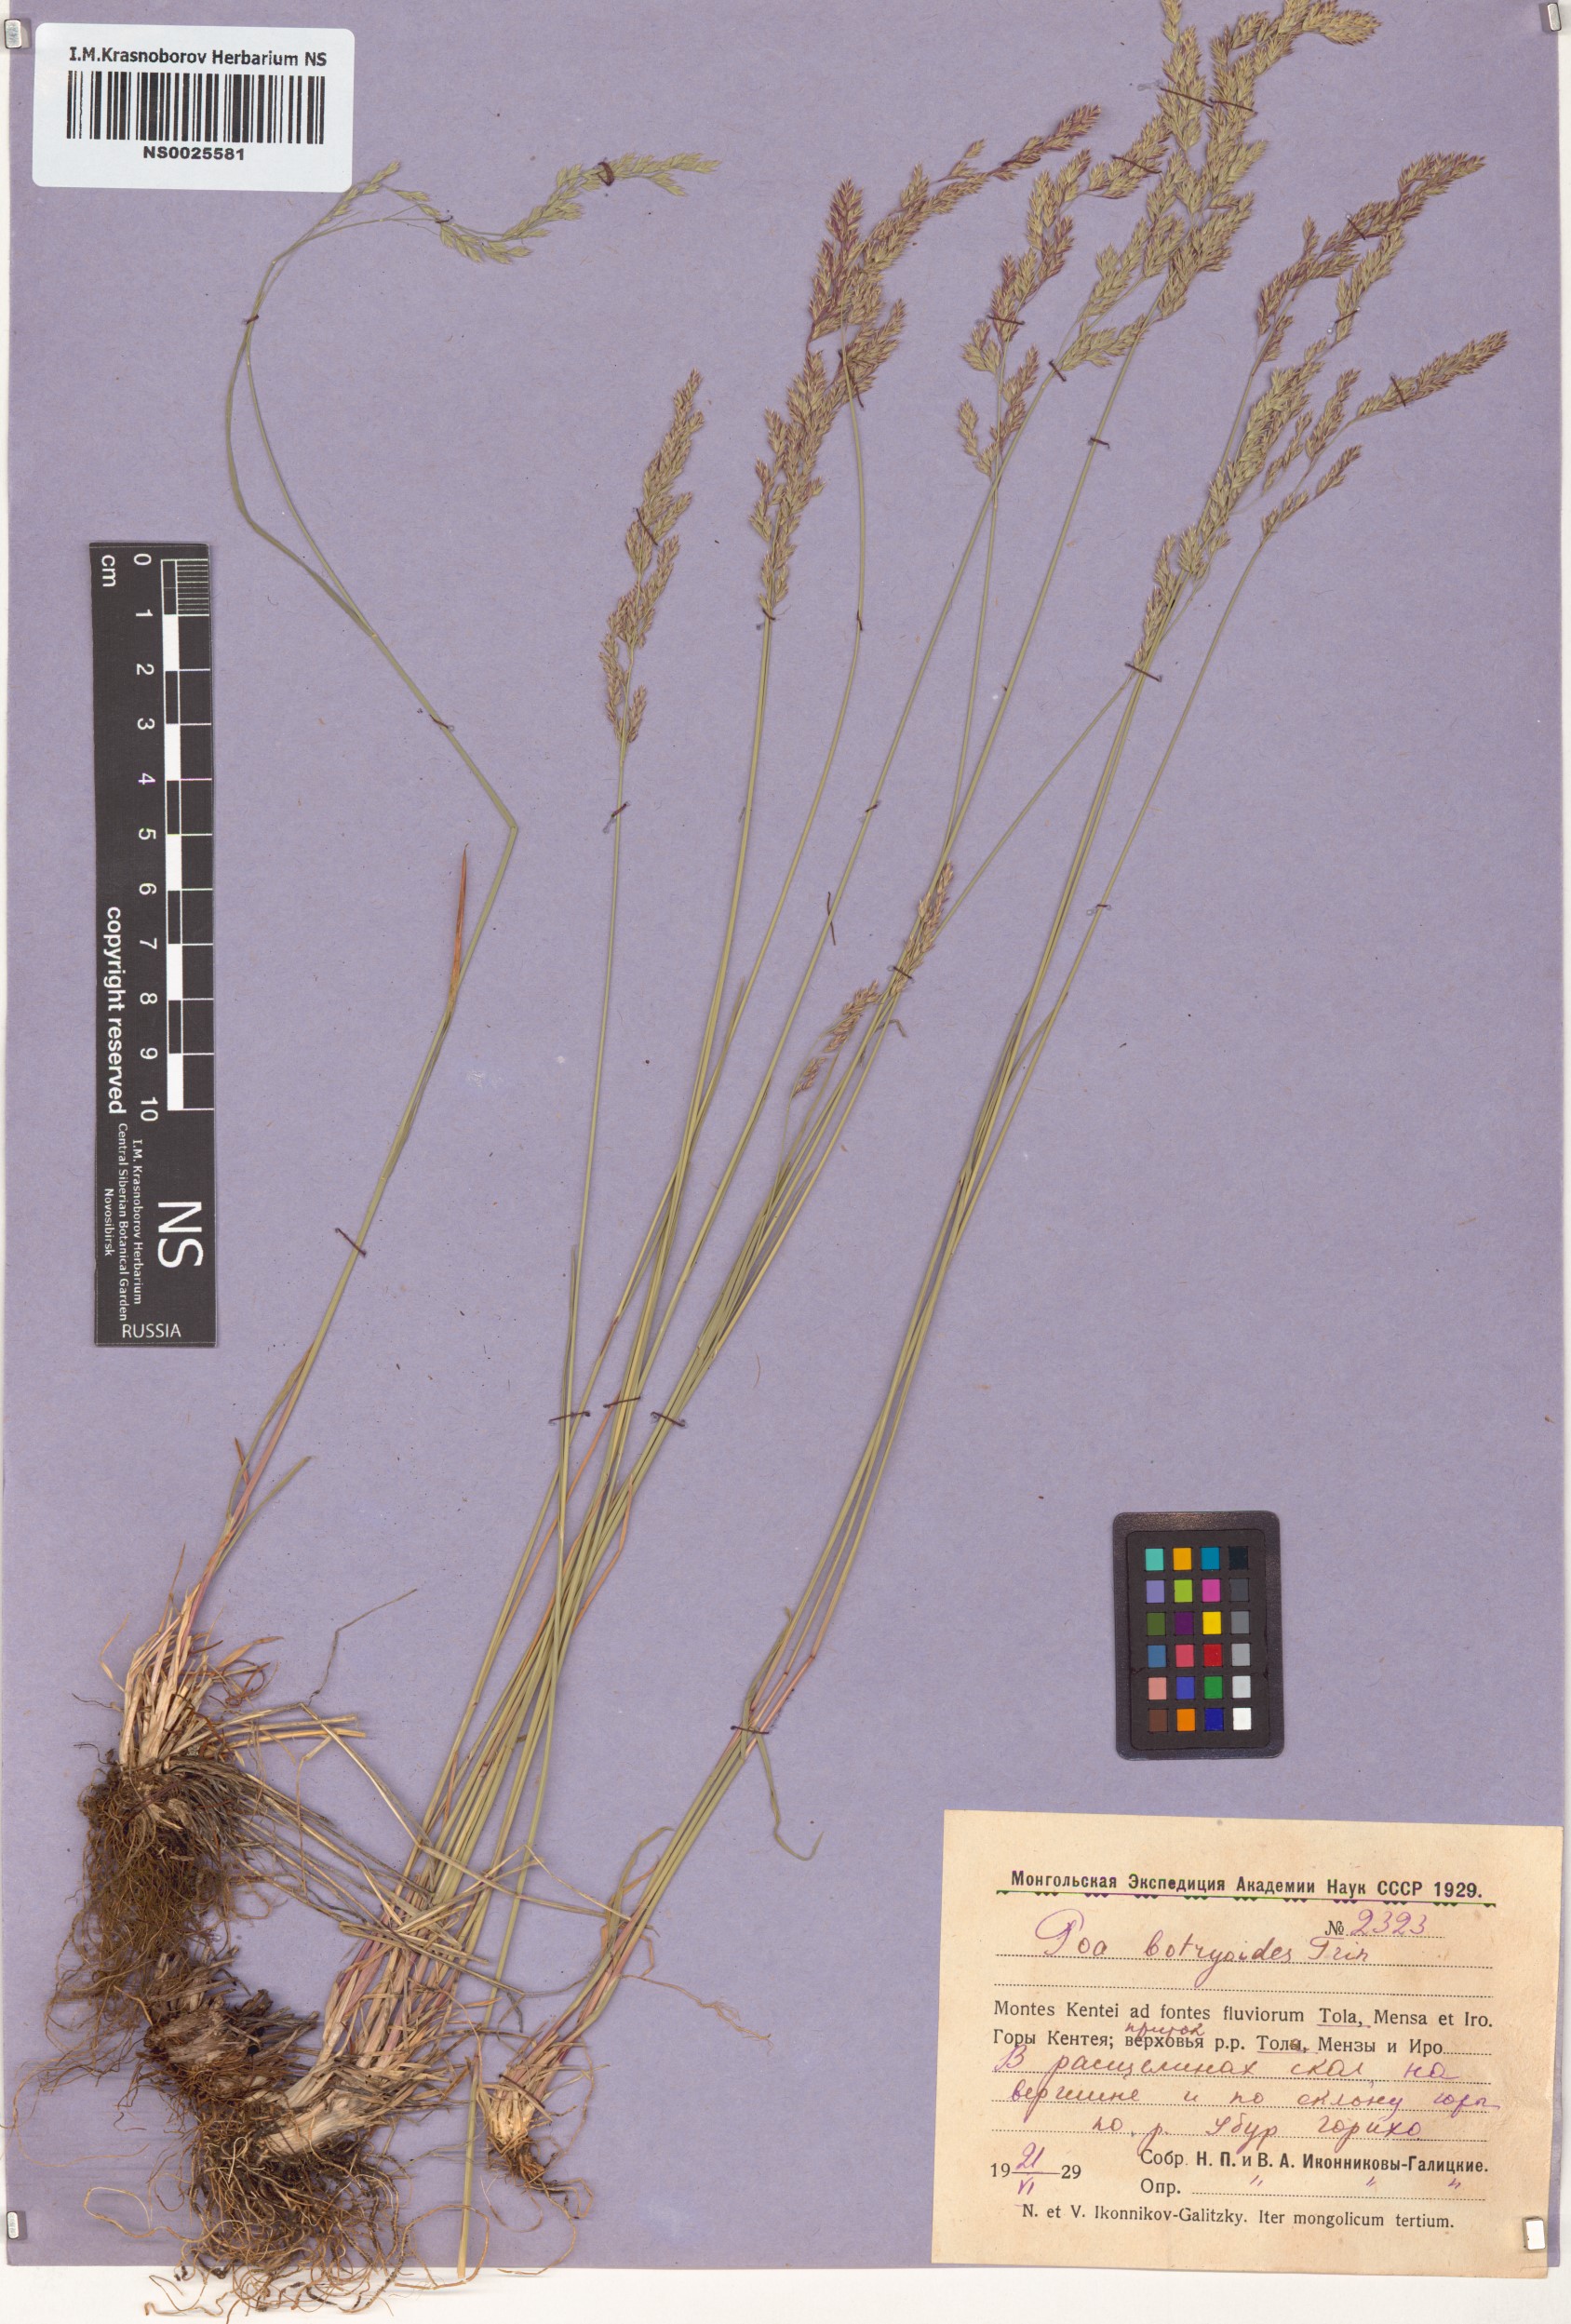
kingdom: Plantae
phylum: Tracheophyta
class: Liliopsida
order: Poales
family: Poaceae
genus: Poa
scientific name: Poa attenuata
